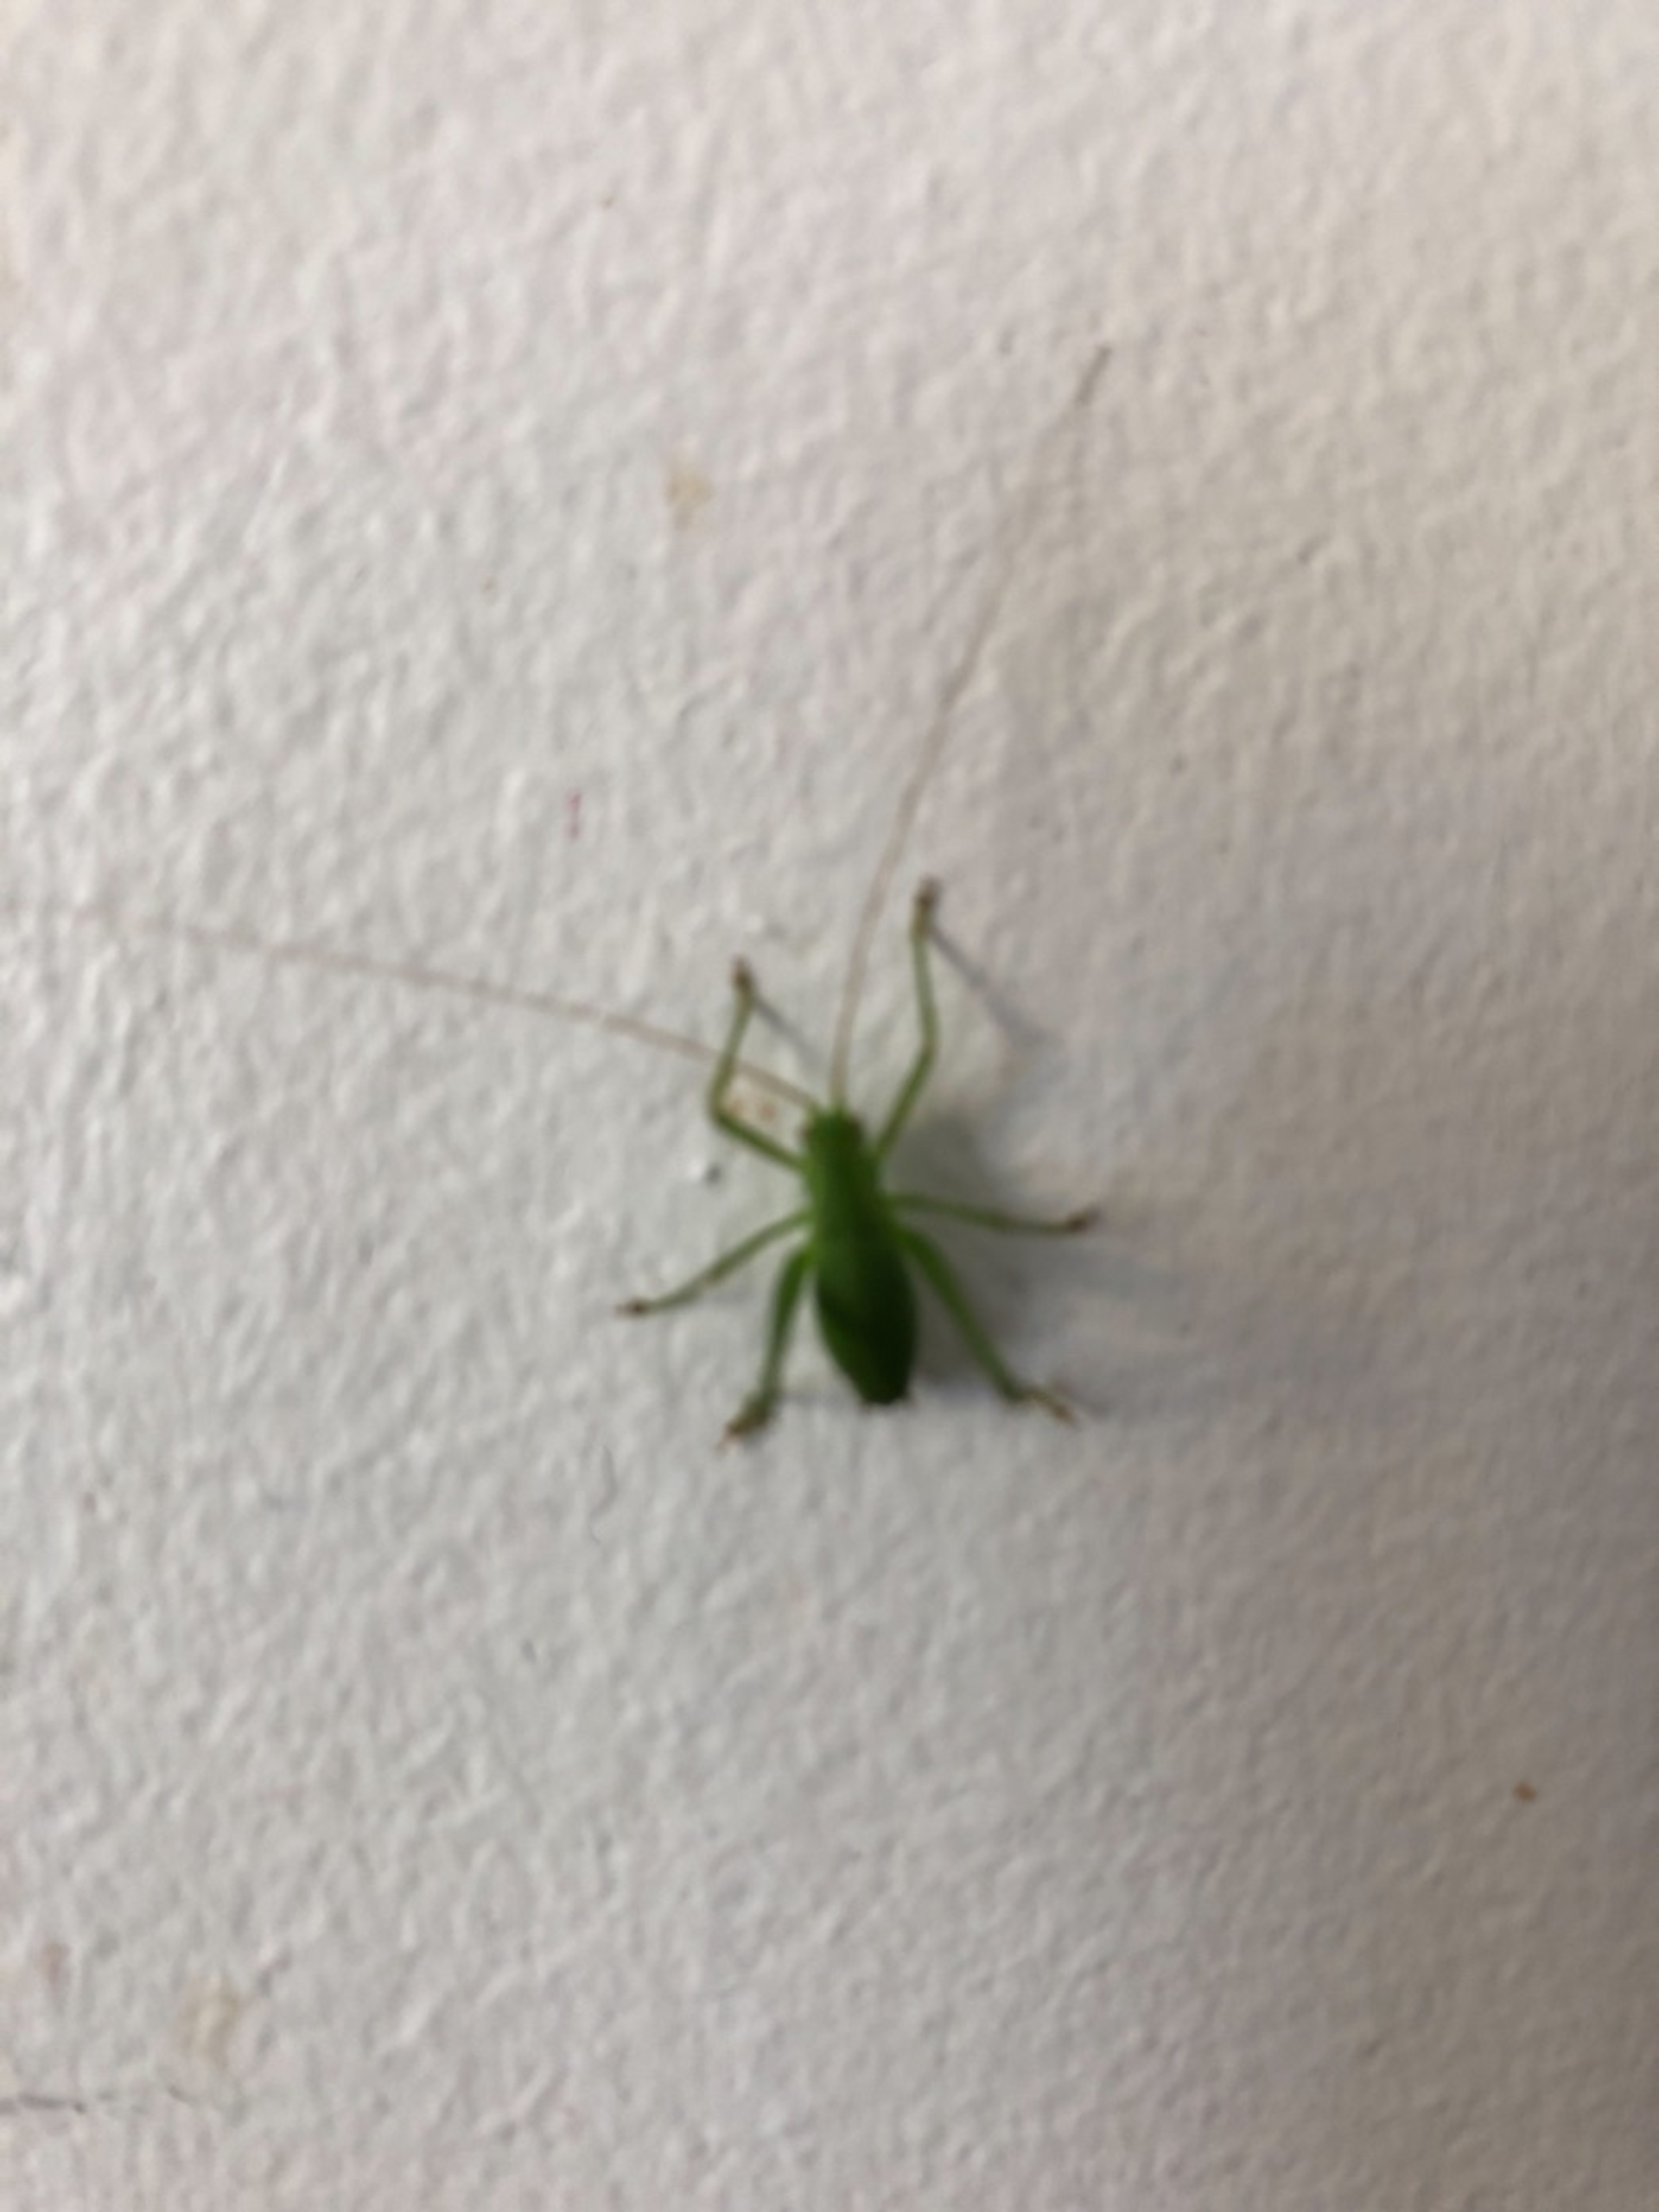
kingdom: Animalia
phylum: Arthropoda
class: Insecta
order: Orthoptera
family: Tettigoniidae
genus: Leptophyes
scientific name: Leptophyes punctatissima
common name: Krumknivgræshoppe
